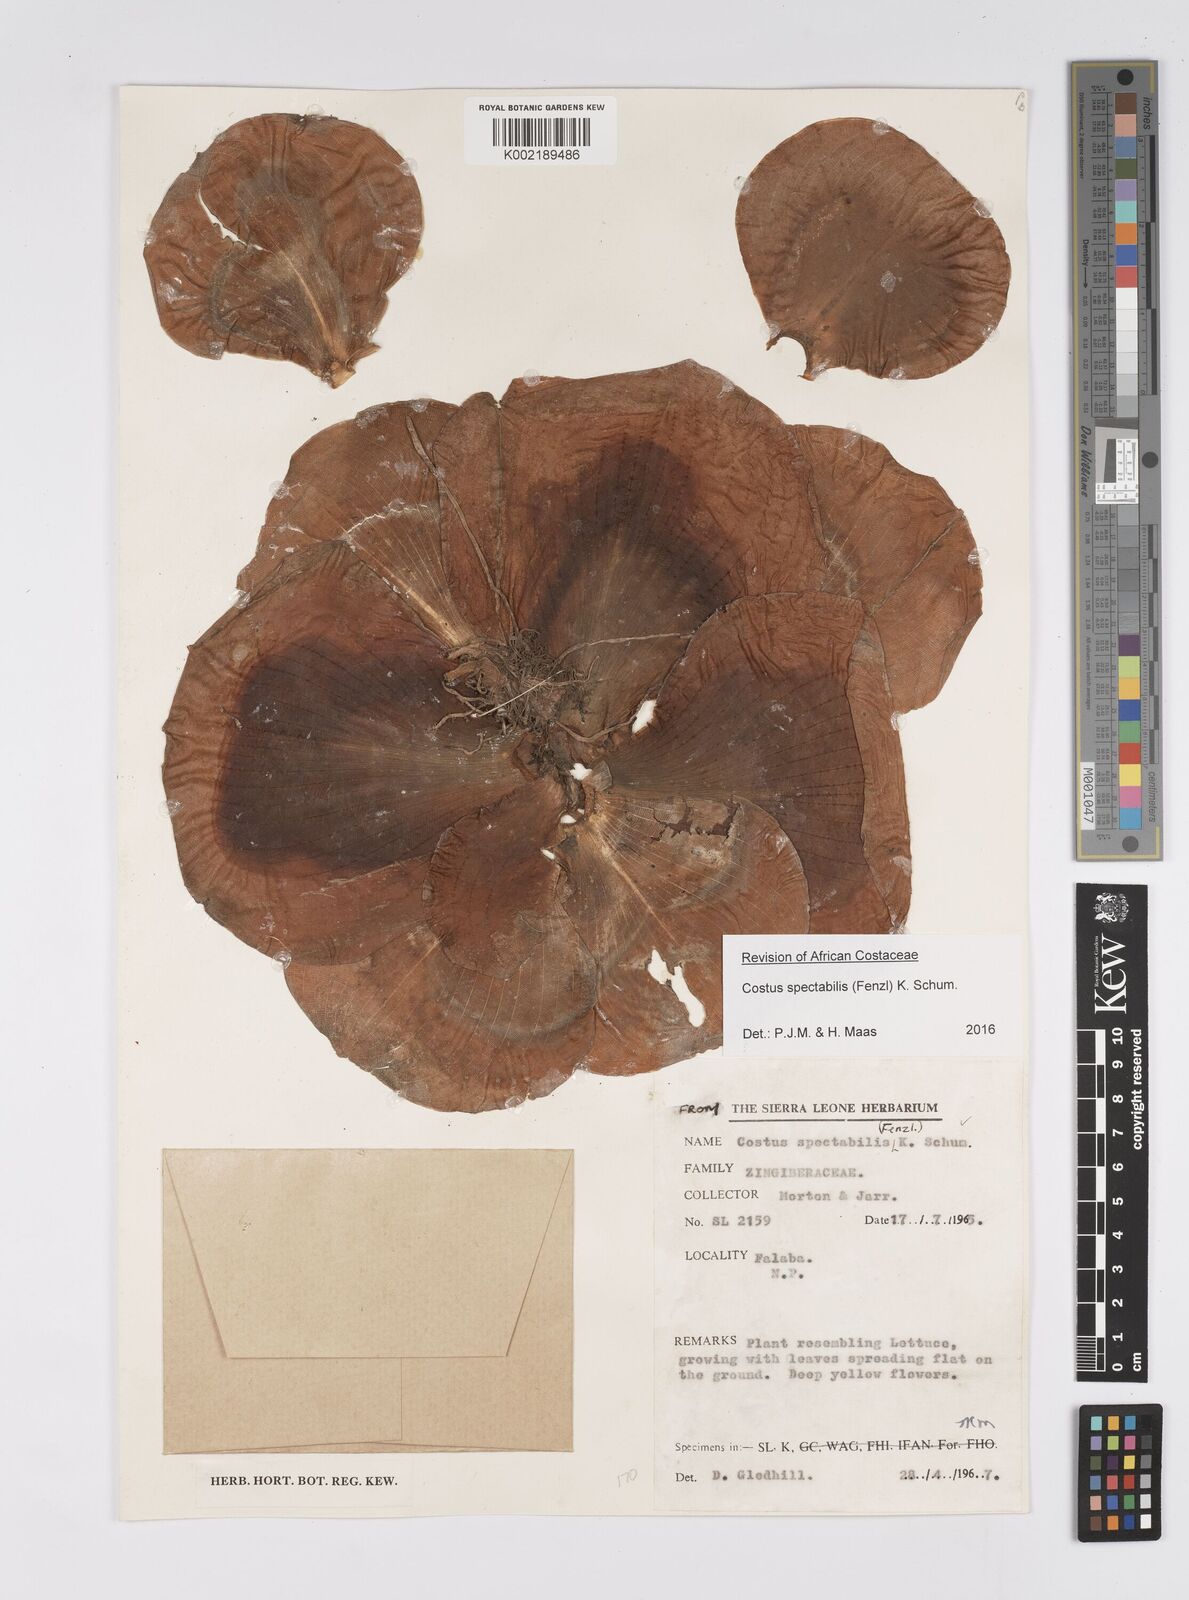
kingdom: Plantae
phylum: Tracheophyta
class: Liliopsida
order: Zingiberales
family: Costaceae
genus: Costus
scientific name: Costus spectabilis
